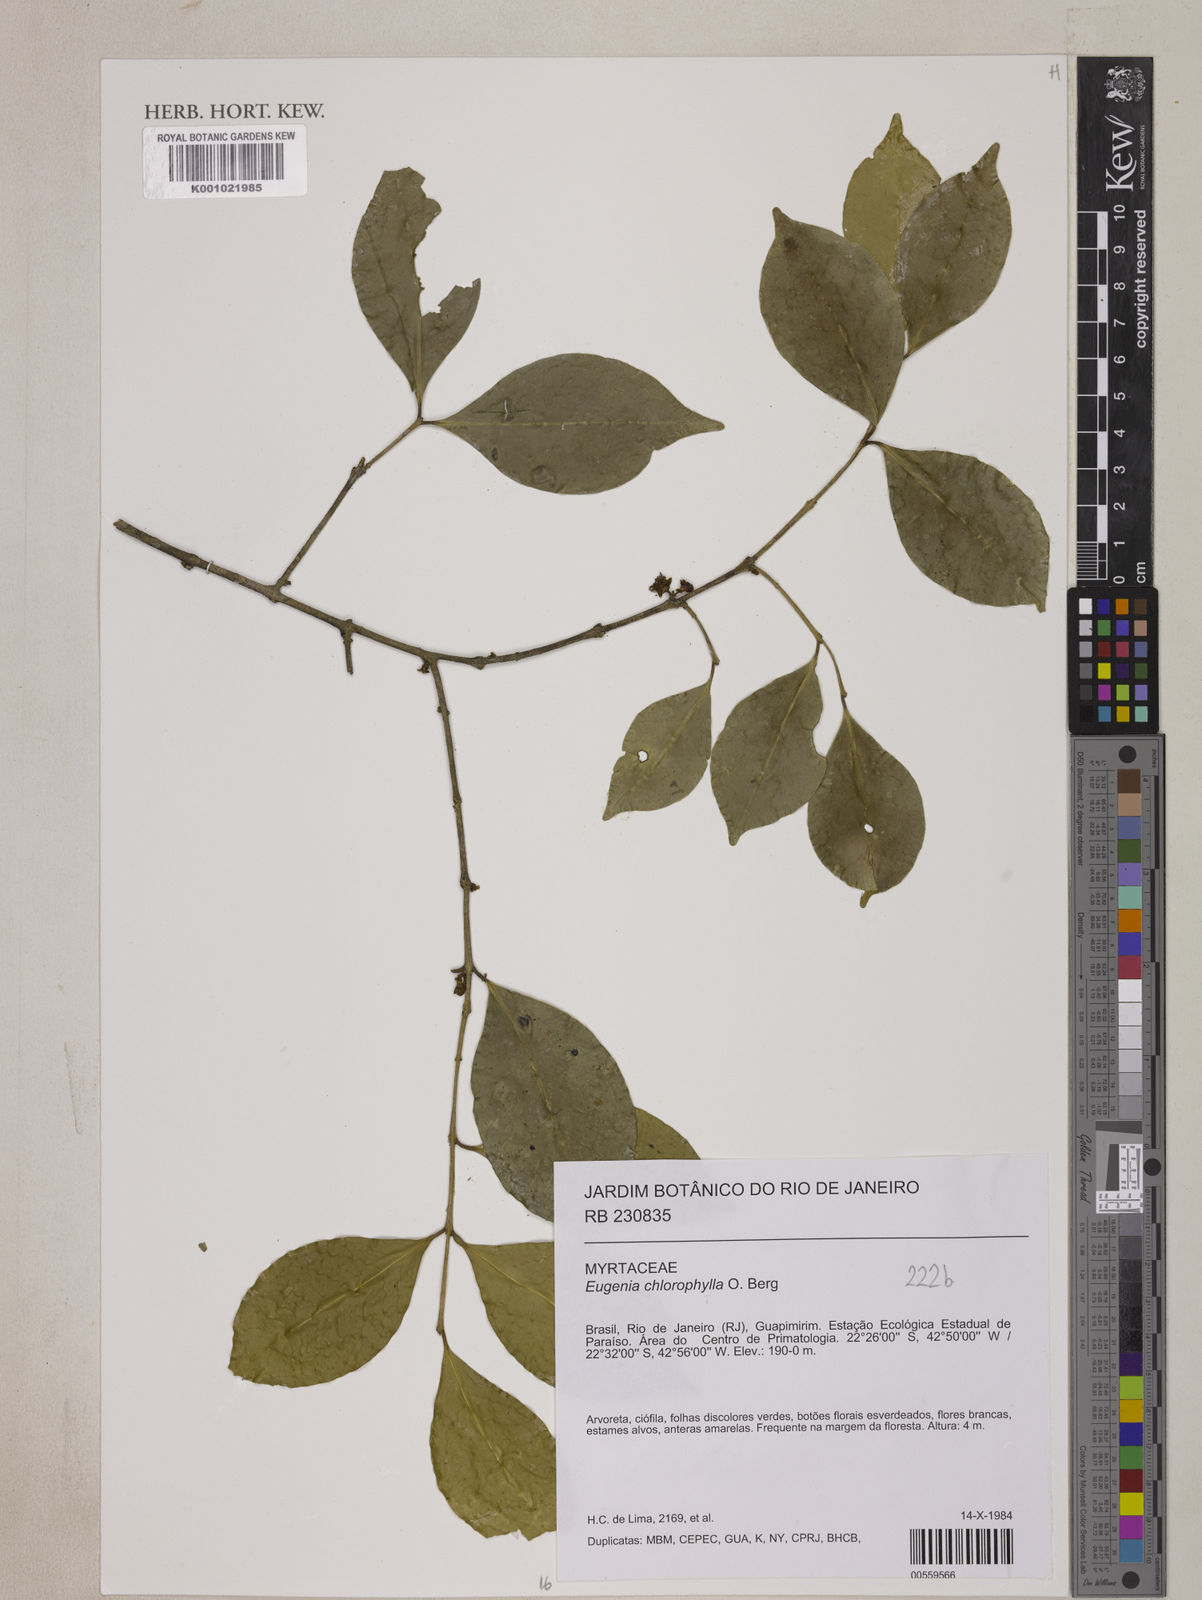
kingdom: Plantae
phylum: Tracheophyta
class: Magnoliopsida
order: Myrtales
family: Myrtaceae
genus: Eugenia
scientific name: Eugenia chlorophylla
